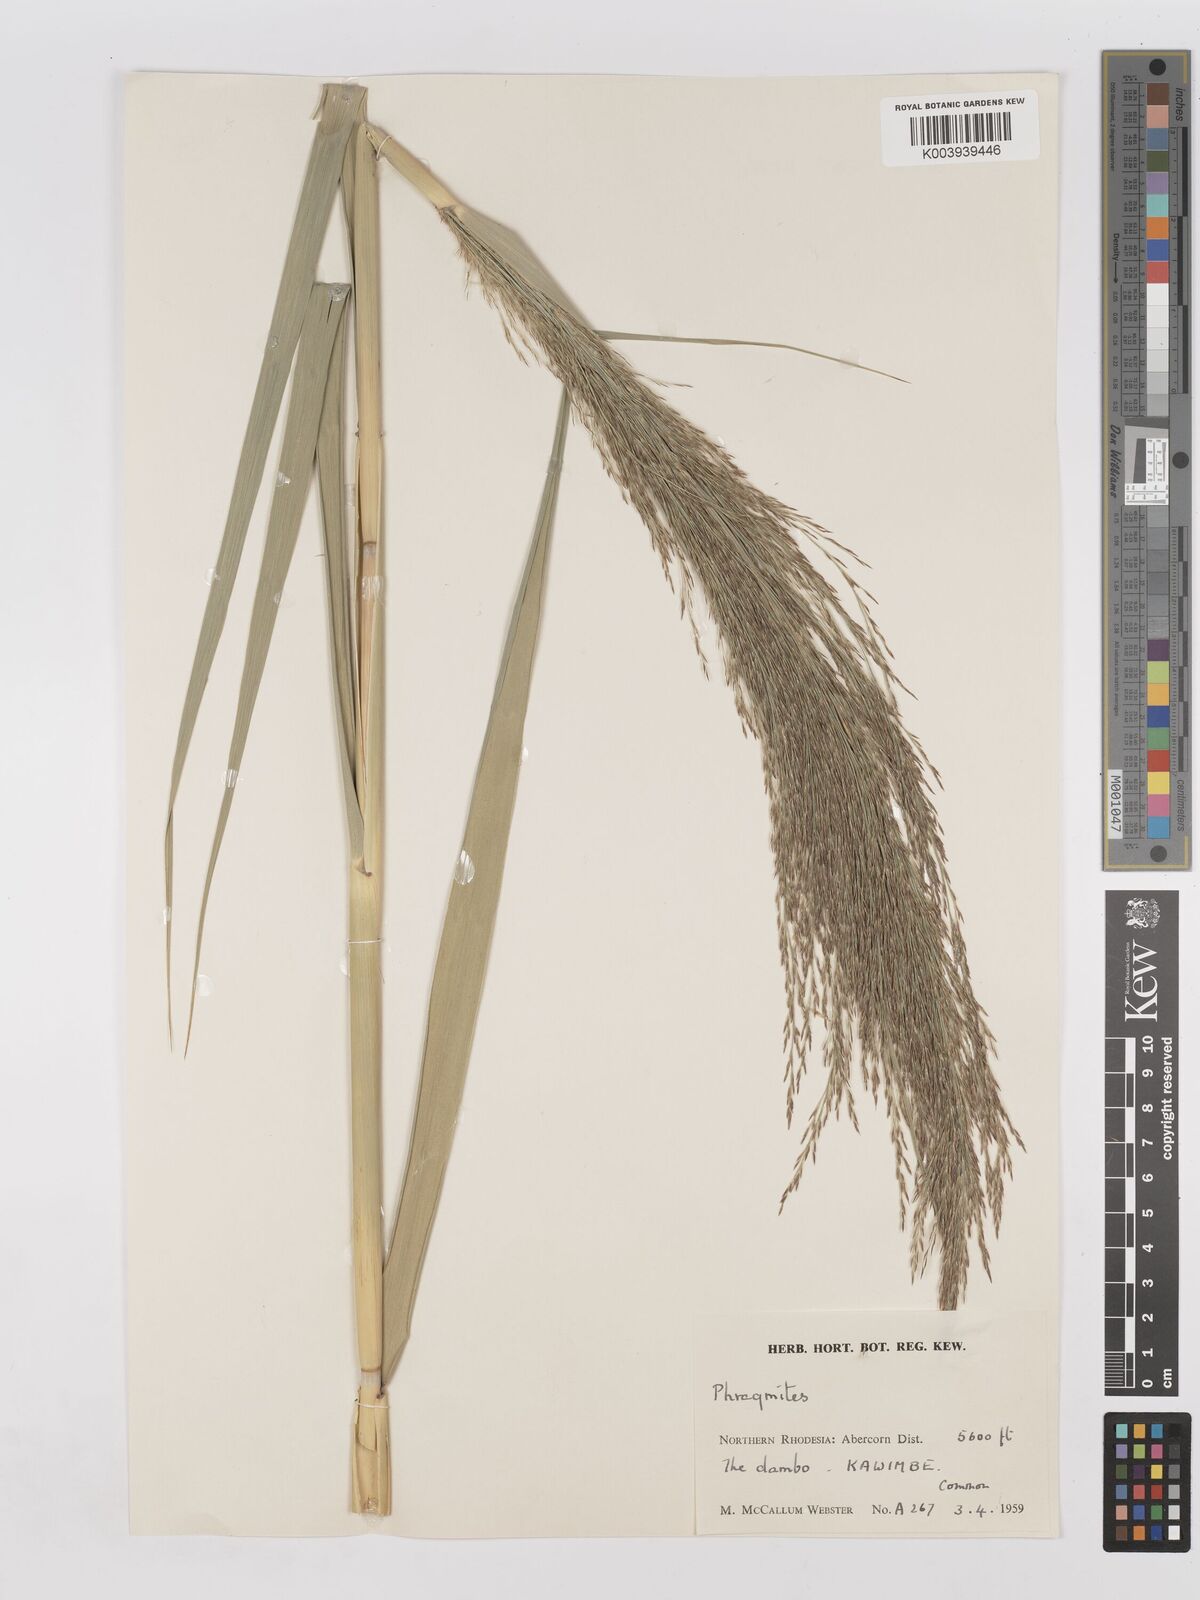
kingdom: Plantae
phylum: Tracheophyta
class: Liliopsida
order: Poales
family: Poaceae
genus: Phragmites
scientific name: Phragmites mauritianus
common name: Reed grass
